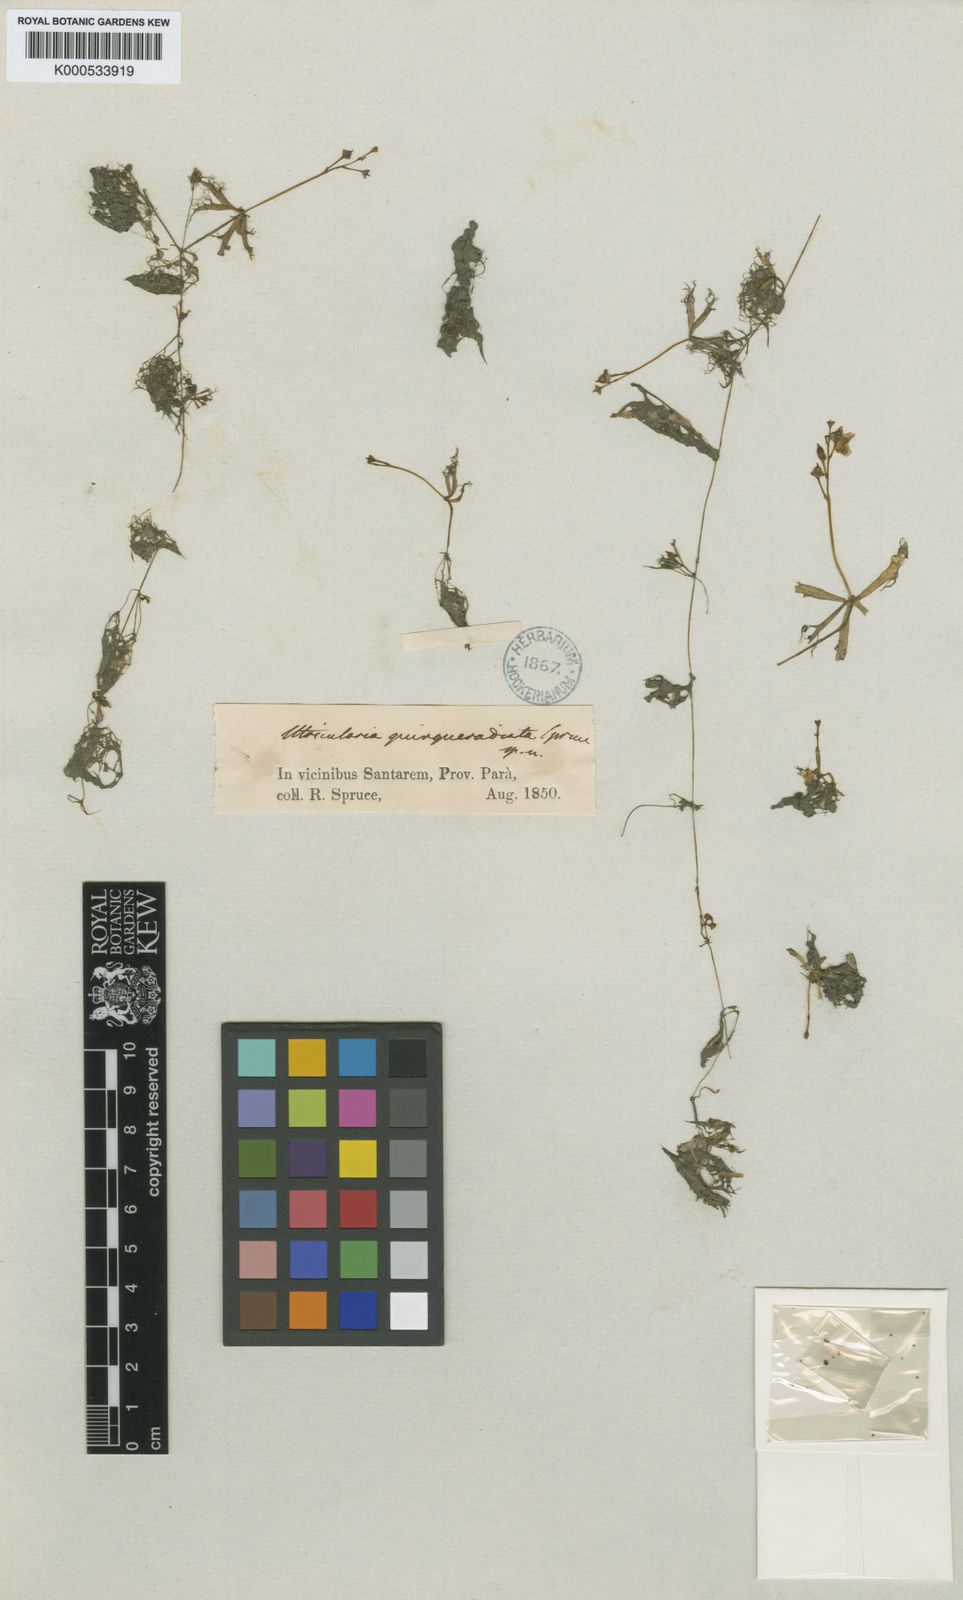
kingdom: Plantae
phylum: Tracheophyta
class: Magnoliopsida
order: Lamiales
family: Lentibulariaceae
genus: Utricularia
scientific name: Utricularia breviscapa
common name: Bladderwort
